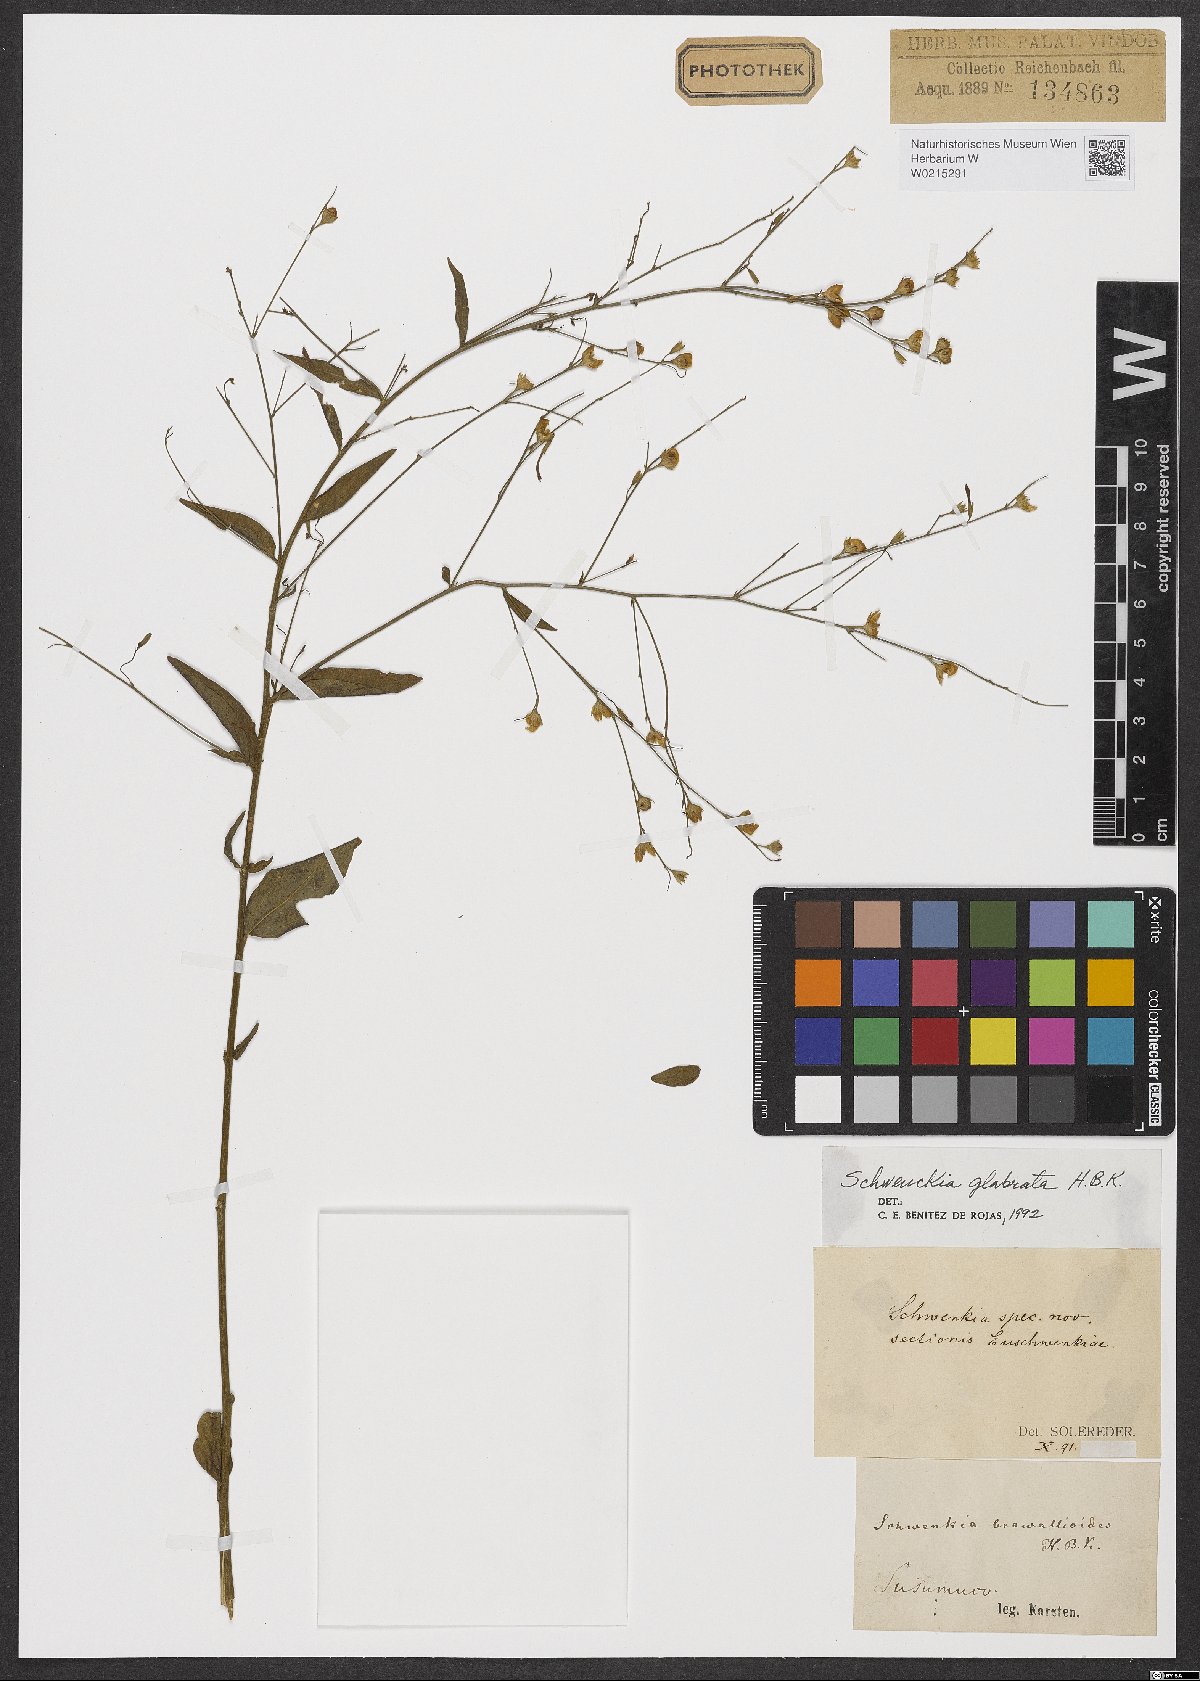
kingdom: Plantae
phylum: Tracheophyta
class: Magnoliopsida
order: Solanales
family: Solanaceae
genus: Schwenckia
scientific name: Schwenckia glabrata
